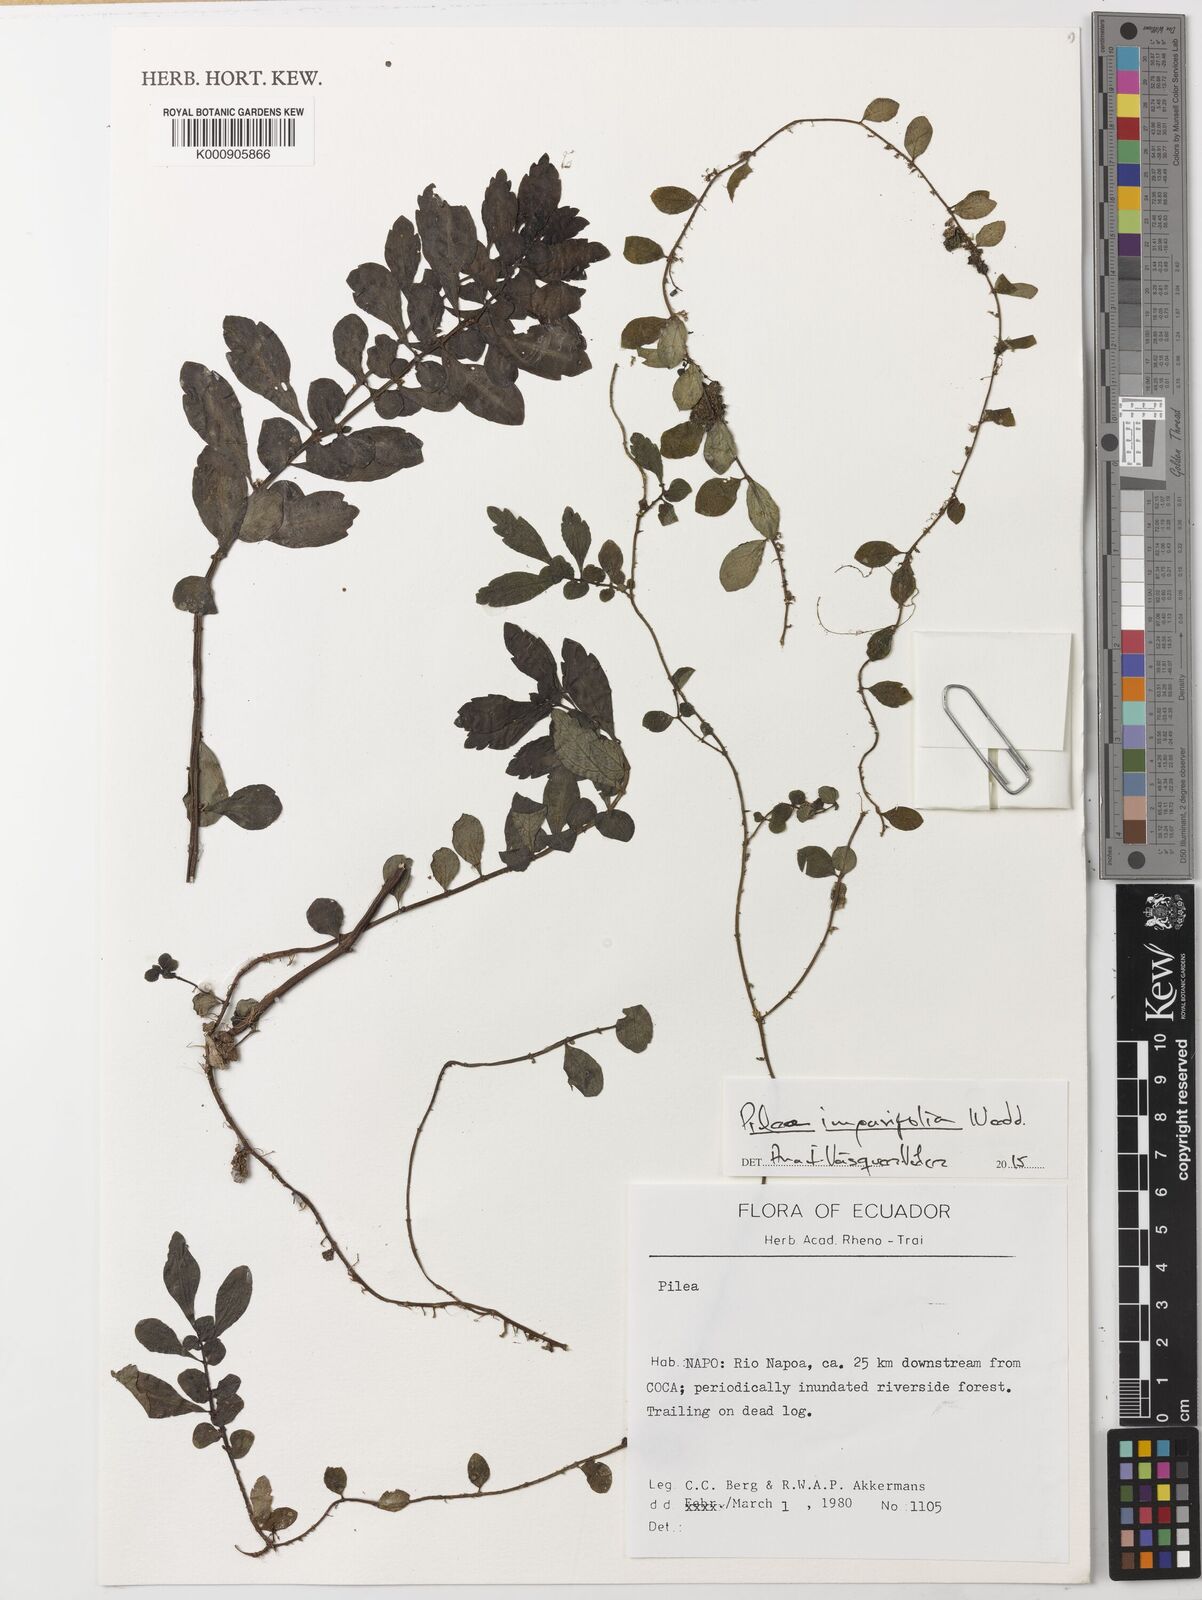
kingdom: Plantae
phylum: Tracheophyta
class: Magnoliopsida
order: Rosales
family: Urticaceae
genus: Pilea
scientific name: Pilea imparifolia
